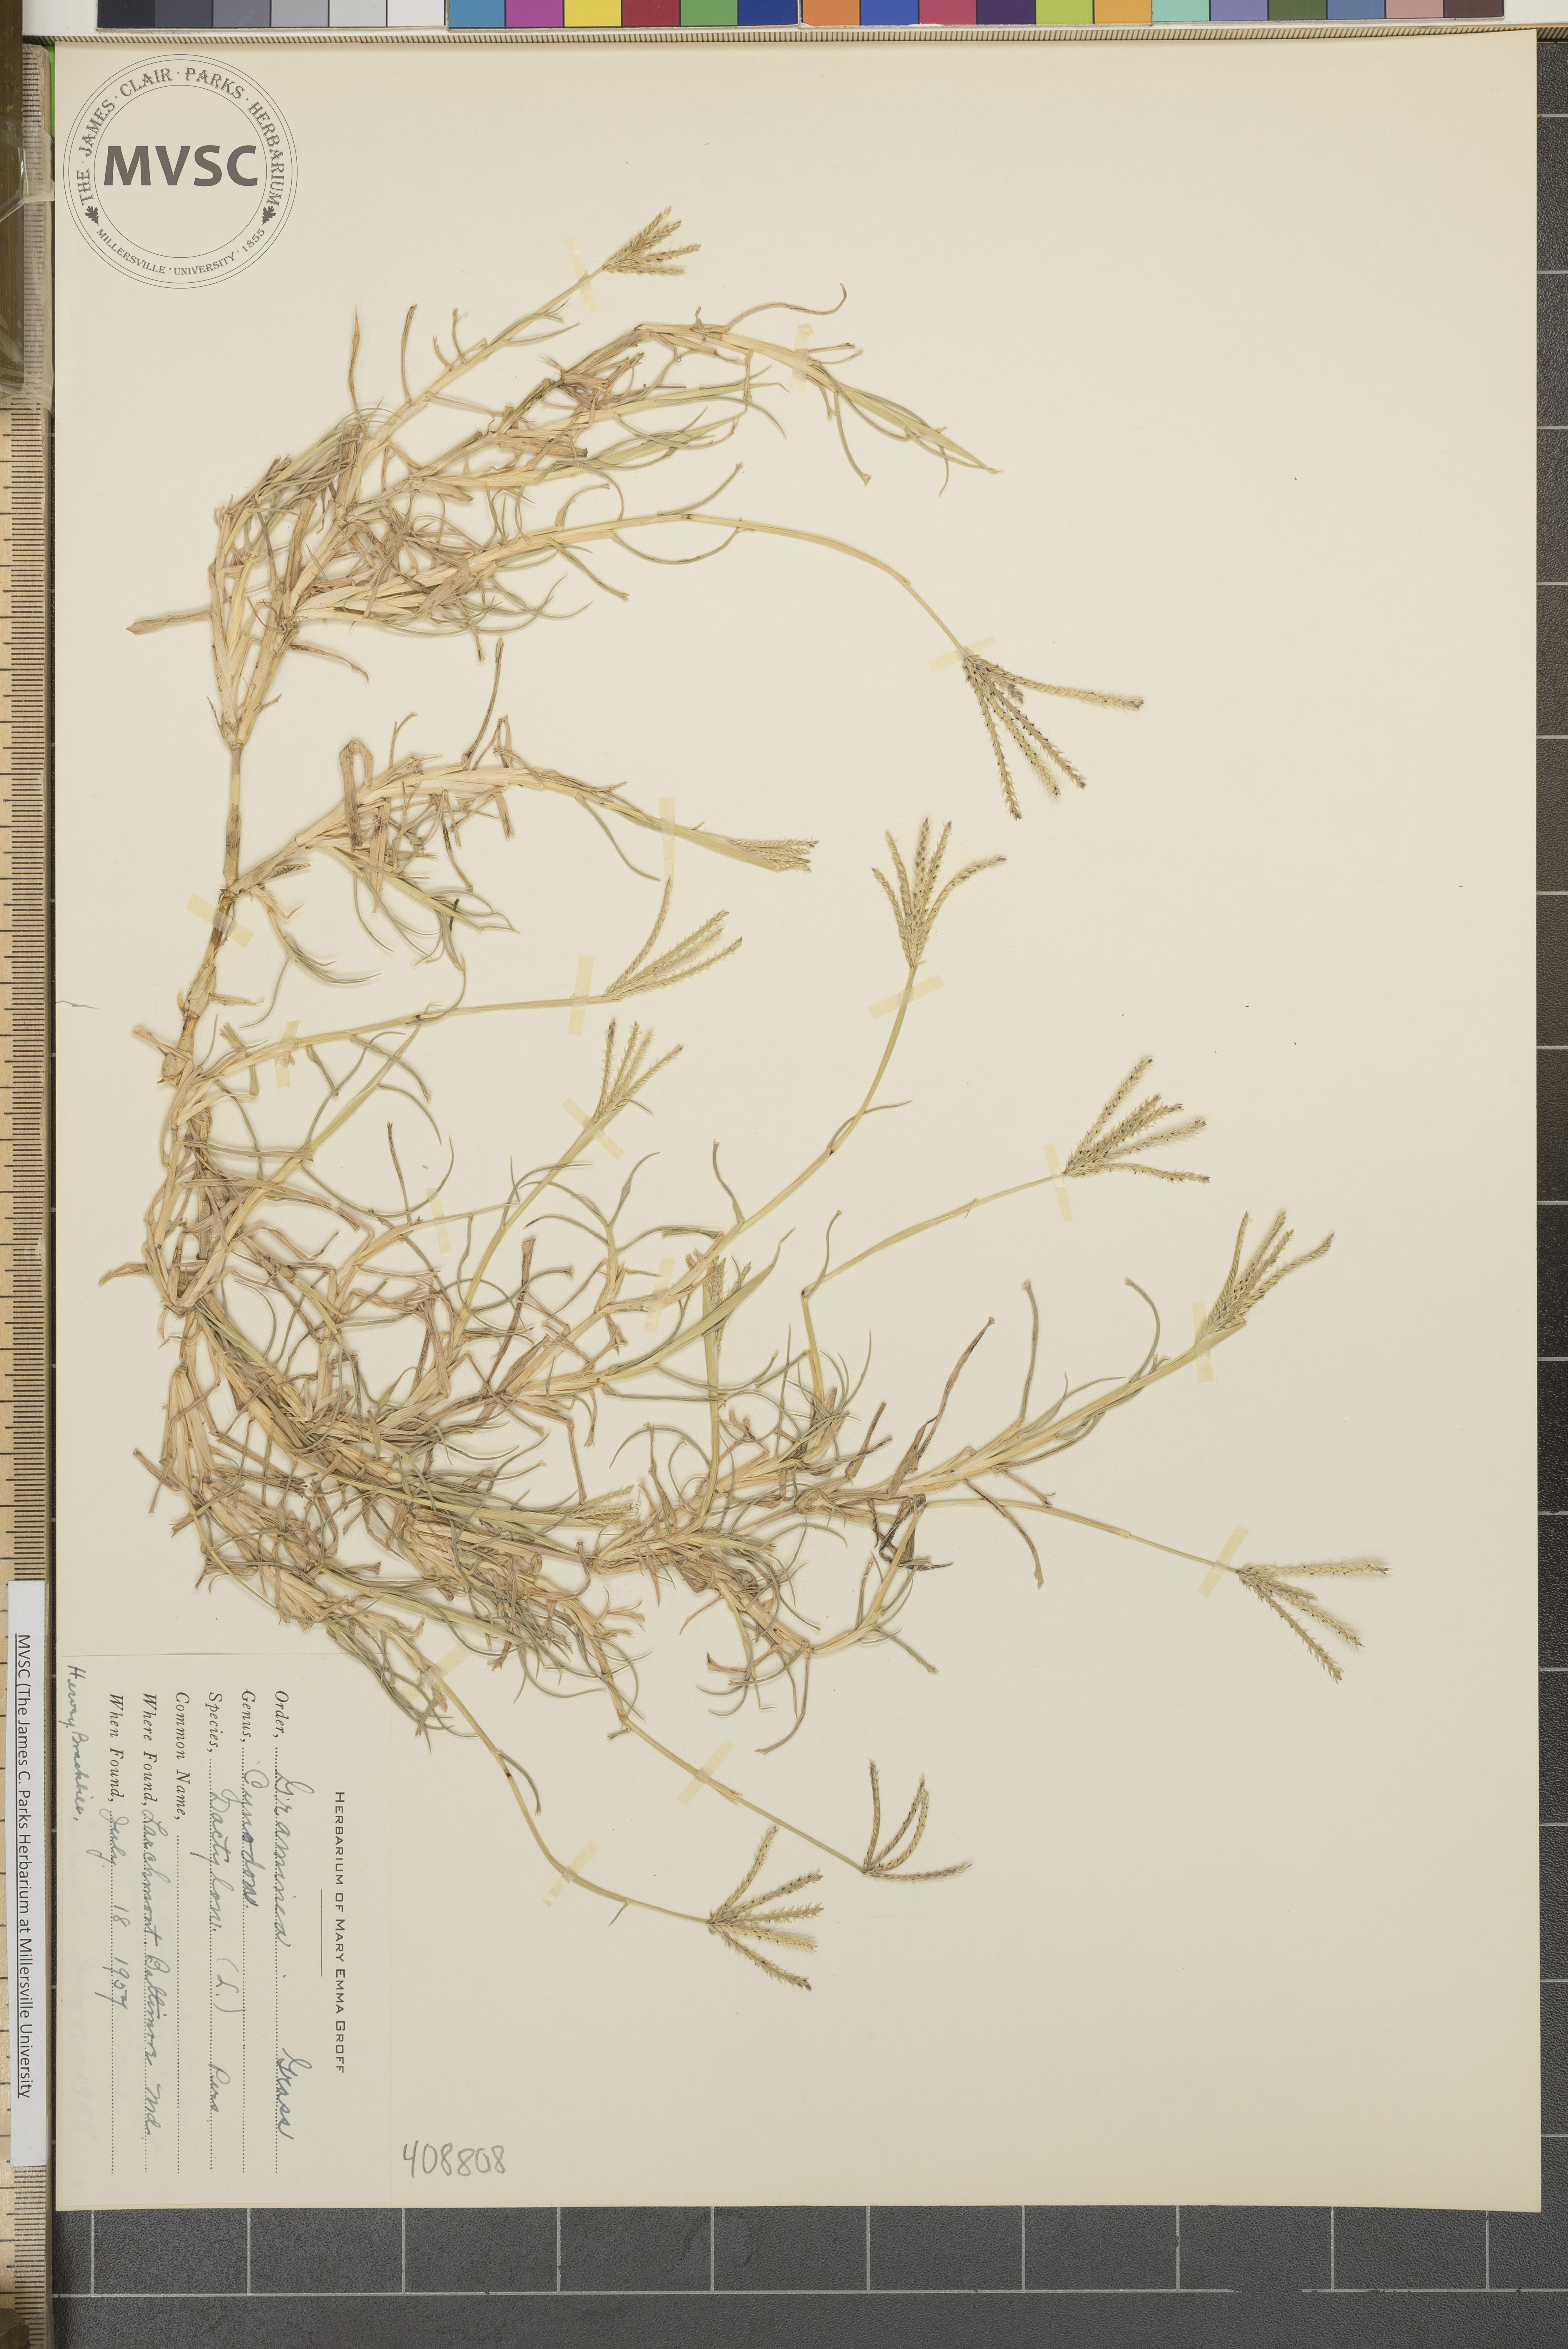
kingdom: Plantae
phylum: Tracheophyta
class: Liliopsida
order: Poales
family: Poaceae
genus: Cynodon
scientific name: Cynodon dactylon
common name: Bermuda grass
